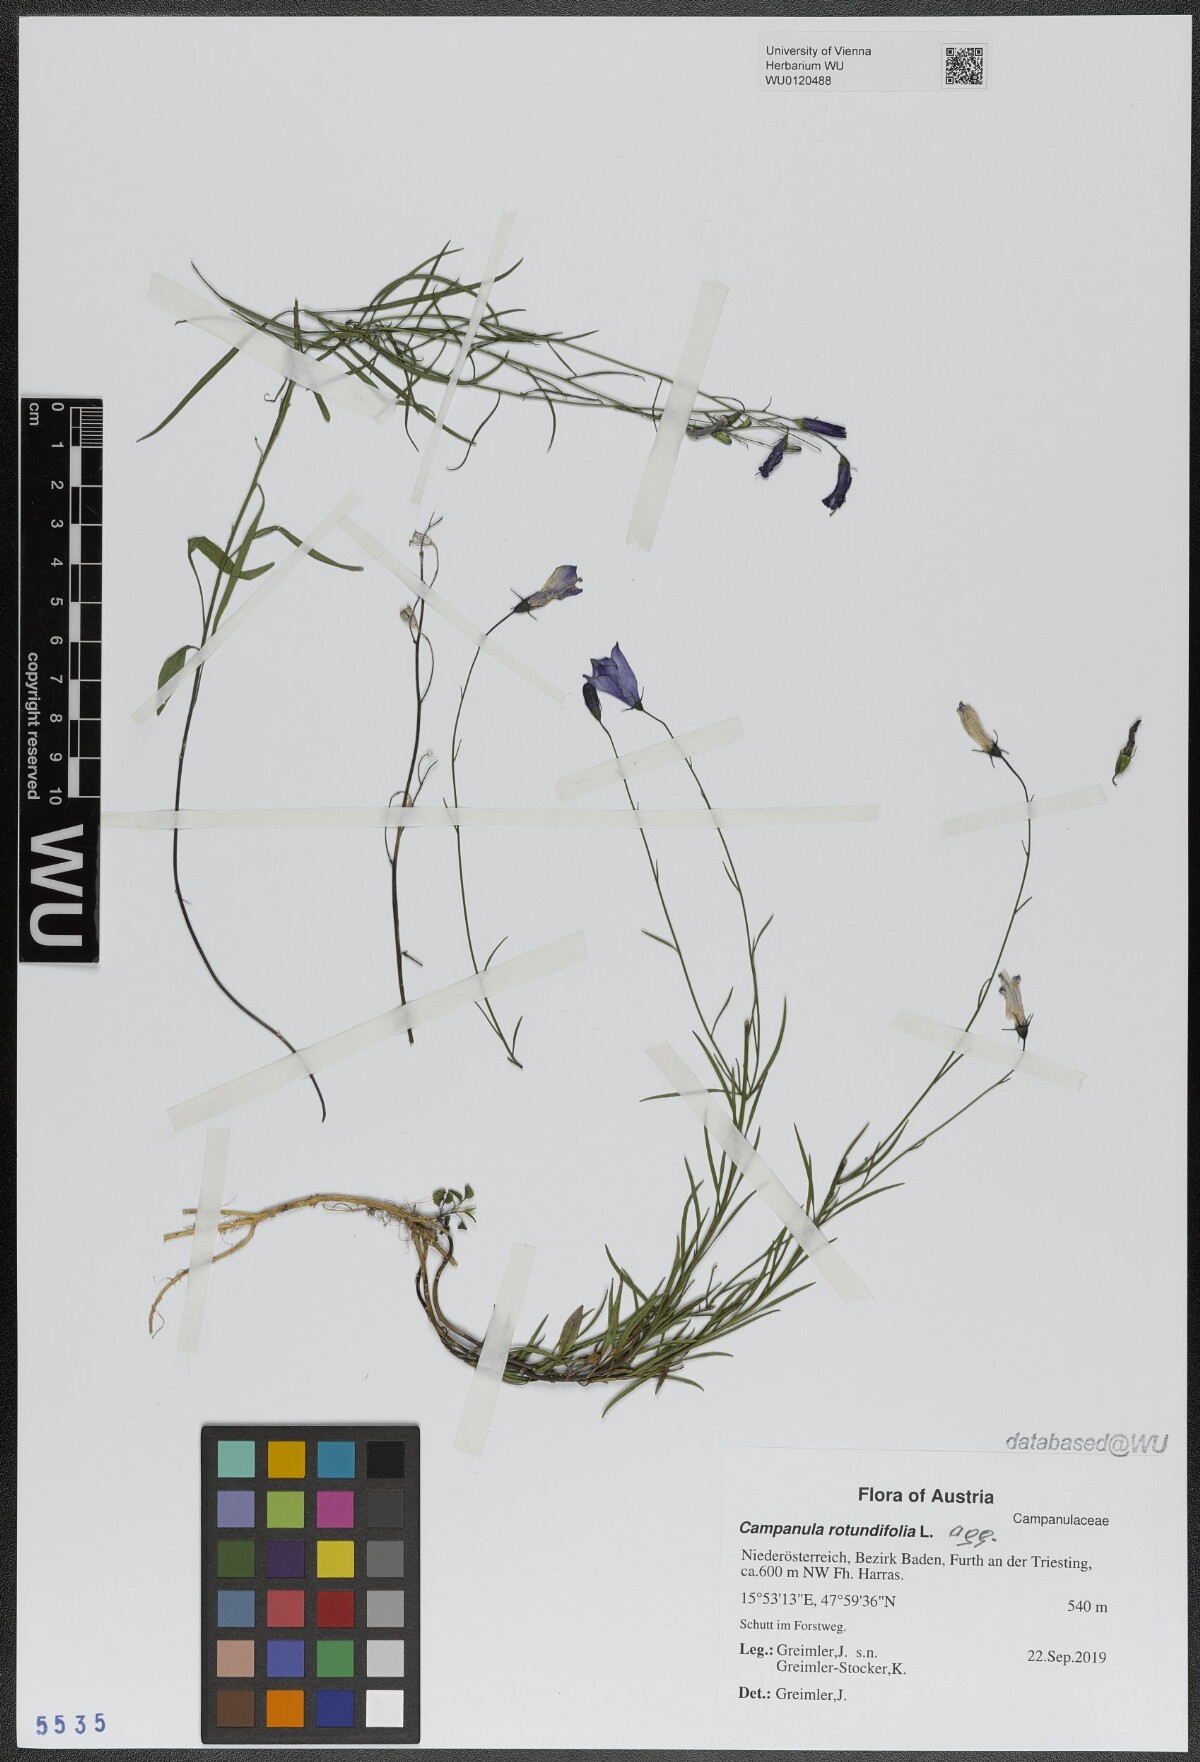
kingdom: Plantae
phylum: Tracheophyta
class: Magnoliopsida
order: Asterales
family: Campanulaceae
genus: Campanula
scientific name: Campanula rotundifolia
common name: Harebell
